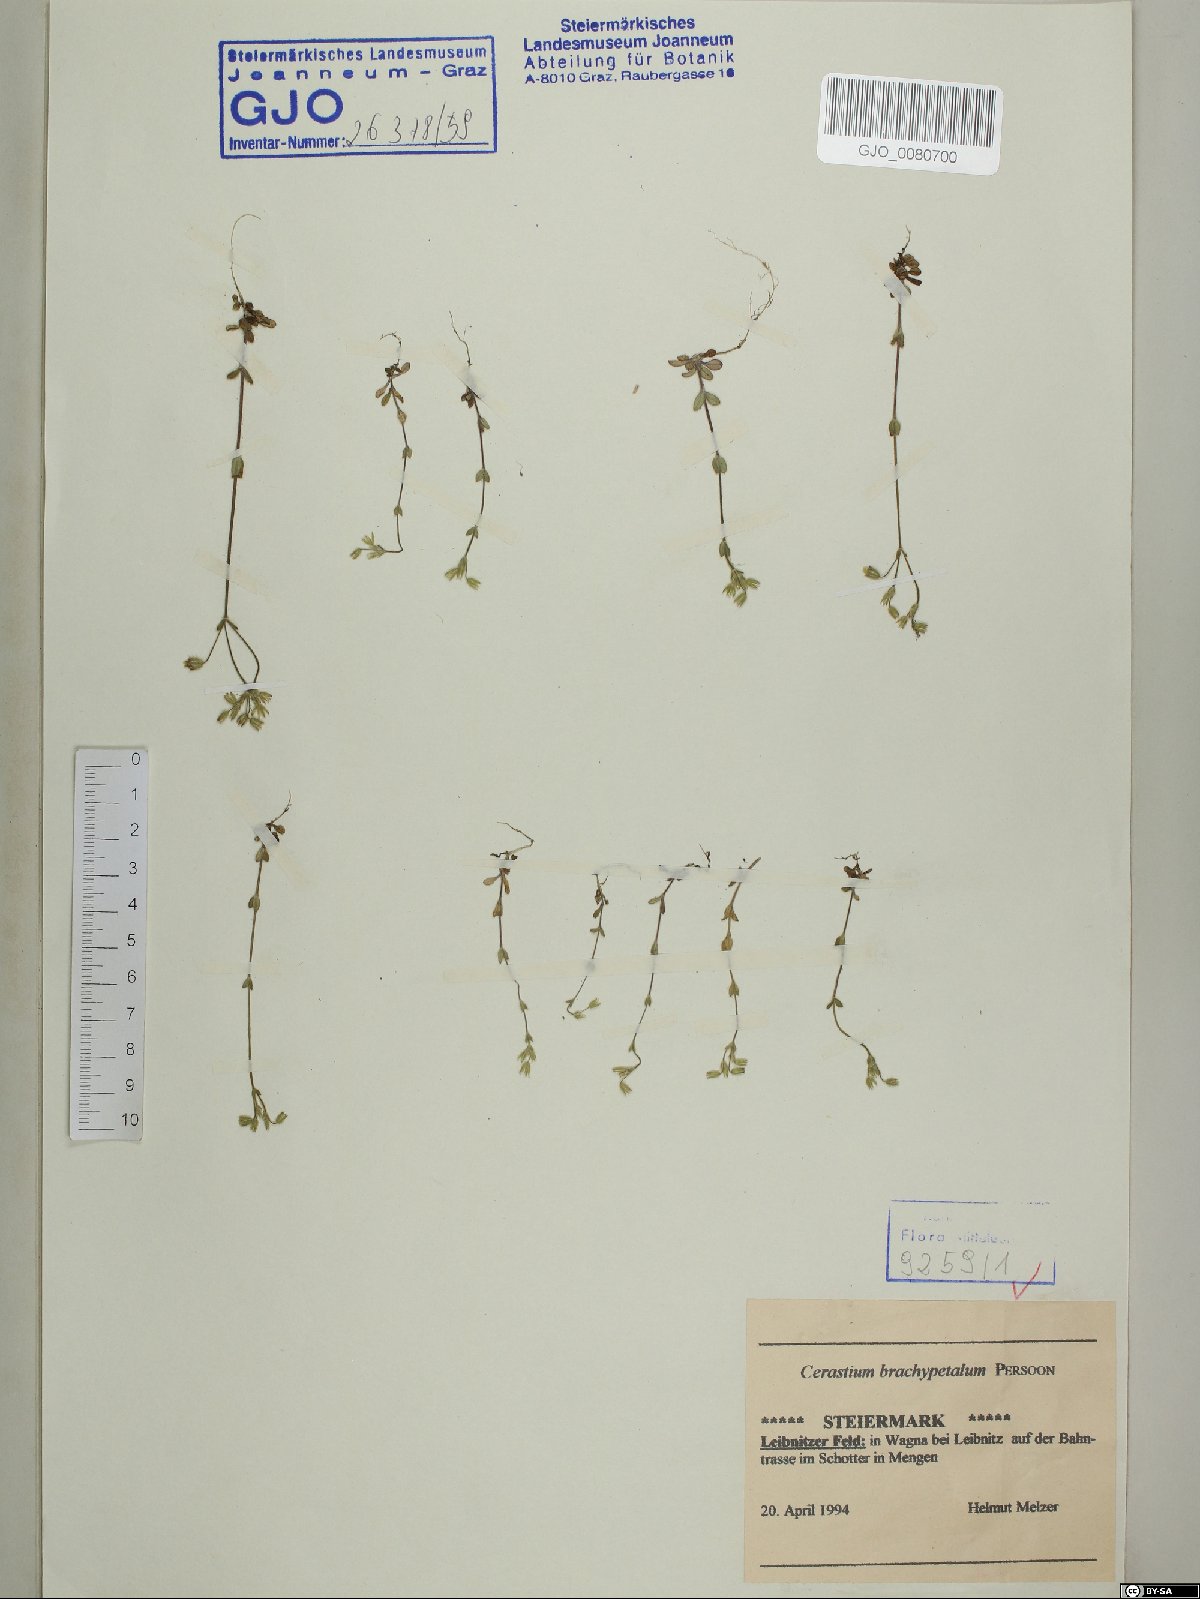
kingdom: Plantae
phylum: Tracheophyta
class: Magnoliopsida
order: Caryophyllales
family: Caryophyllaceae
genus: Cerastium
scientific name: Cerastium brachypetalum
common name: Grey mouse-ear
